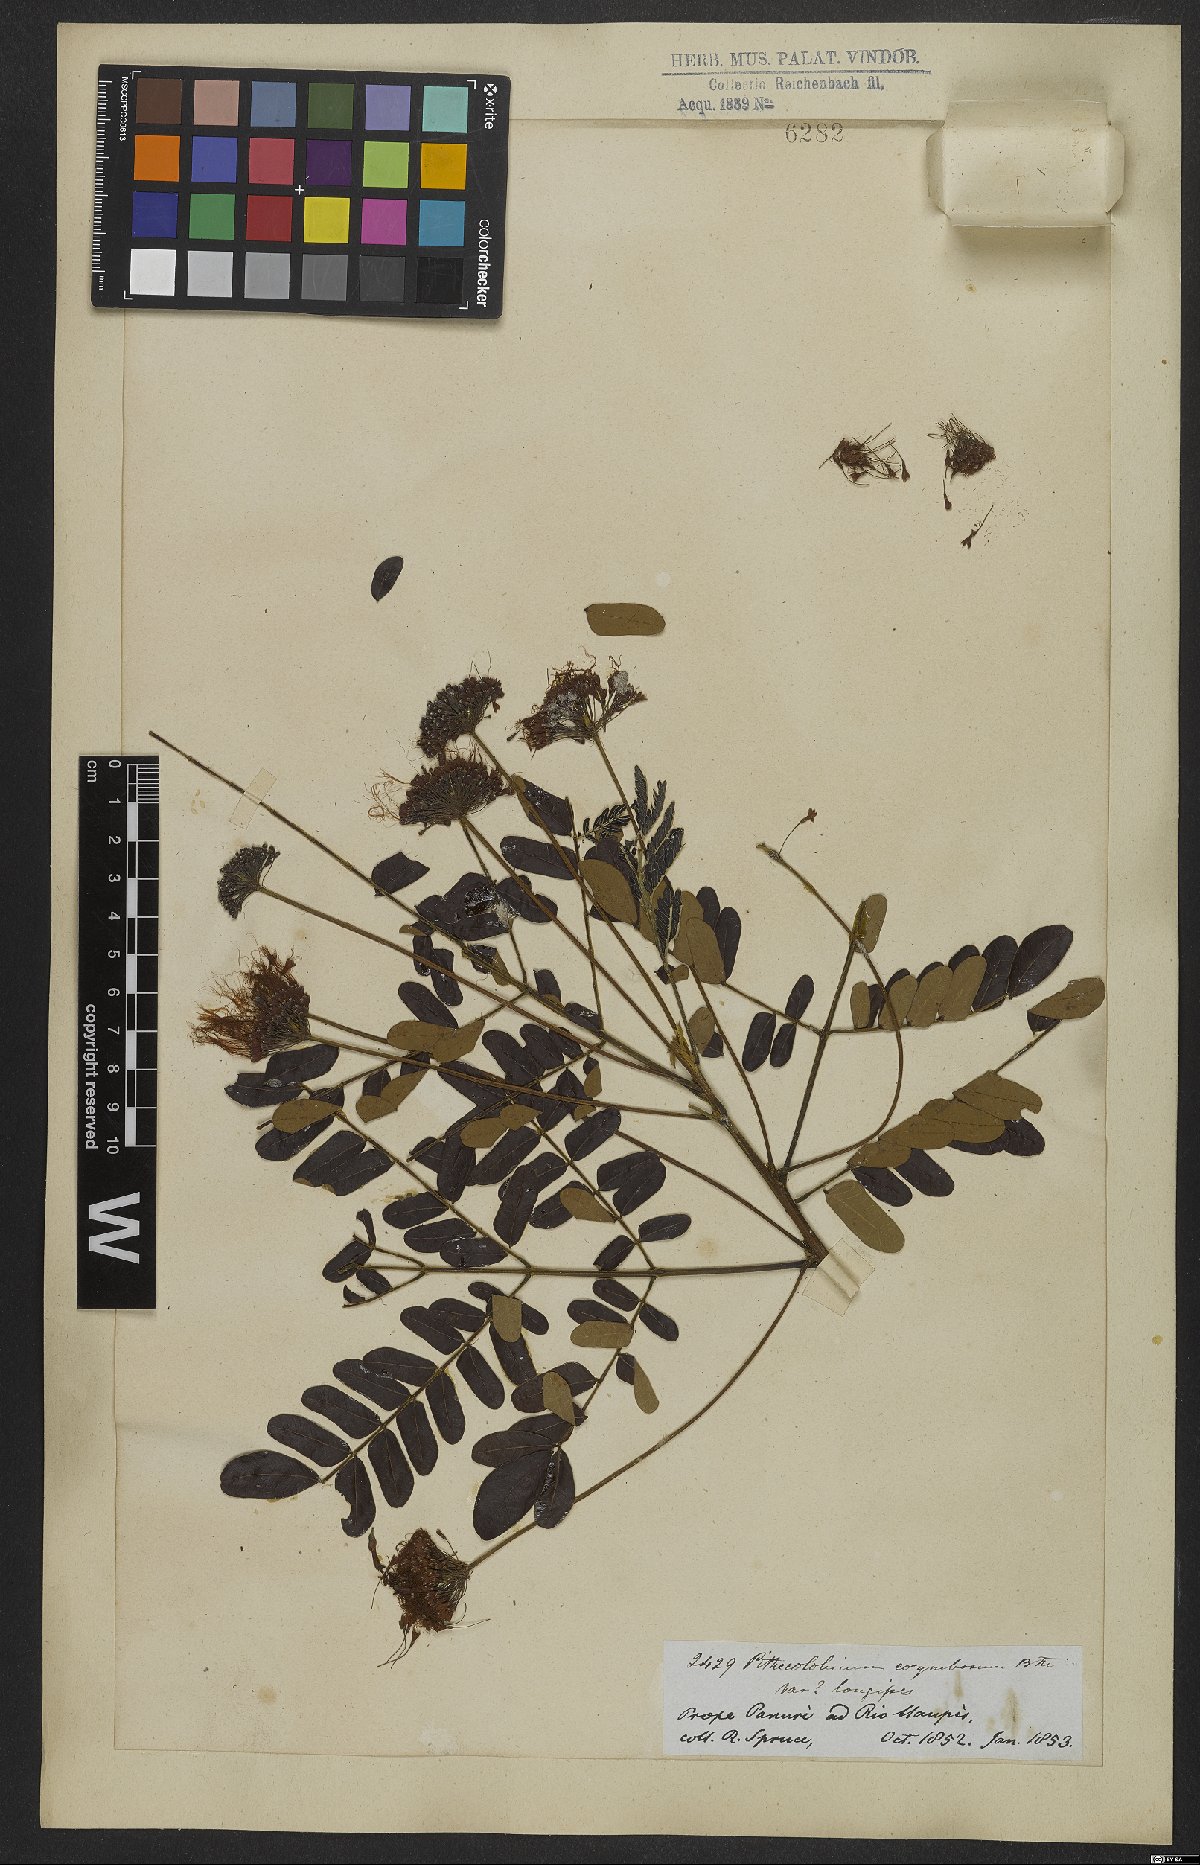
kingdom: Plantae
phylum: Tracheophyta
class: Magnoliopsida
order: Fabales
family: Fabaceae
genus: Hydrochorea
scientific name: Hydrochorea corymbosa
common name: Swamp manariballi
